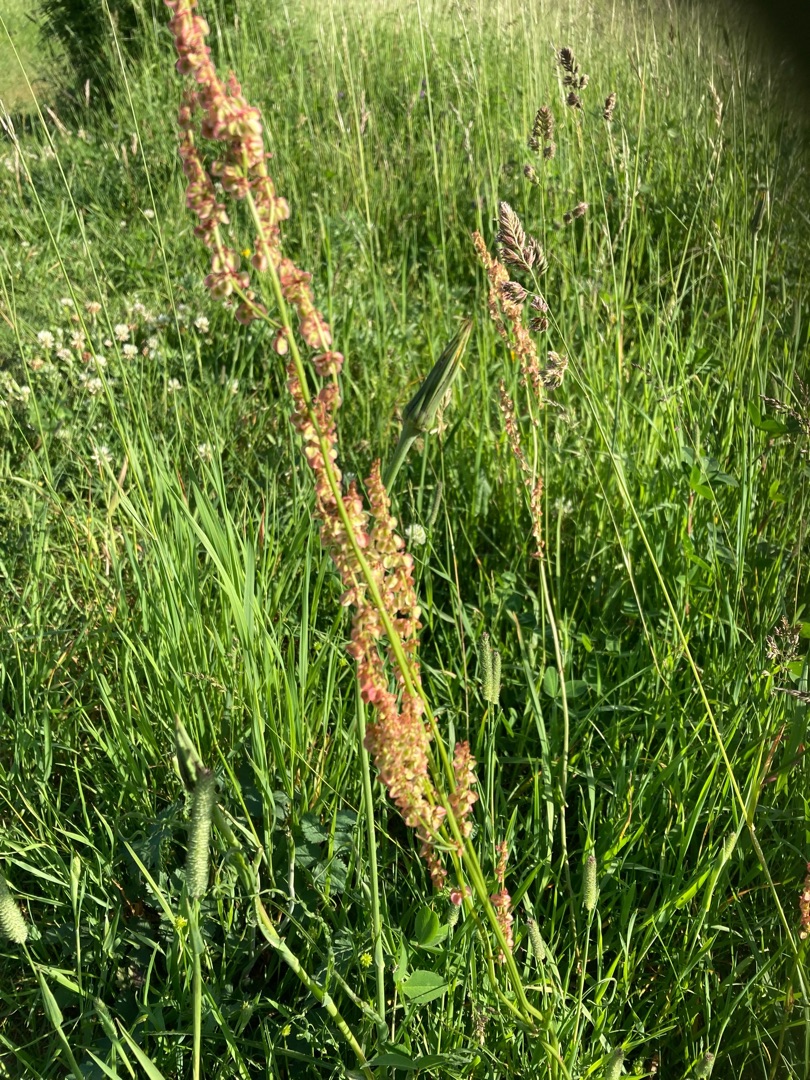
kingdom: Plantae
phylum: Tracheophyta
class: Magnoliopsida
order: Caryophyllales
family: Polygonaceae
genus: Rumex
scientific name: Rumex acetosa
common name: Almindelig syre
